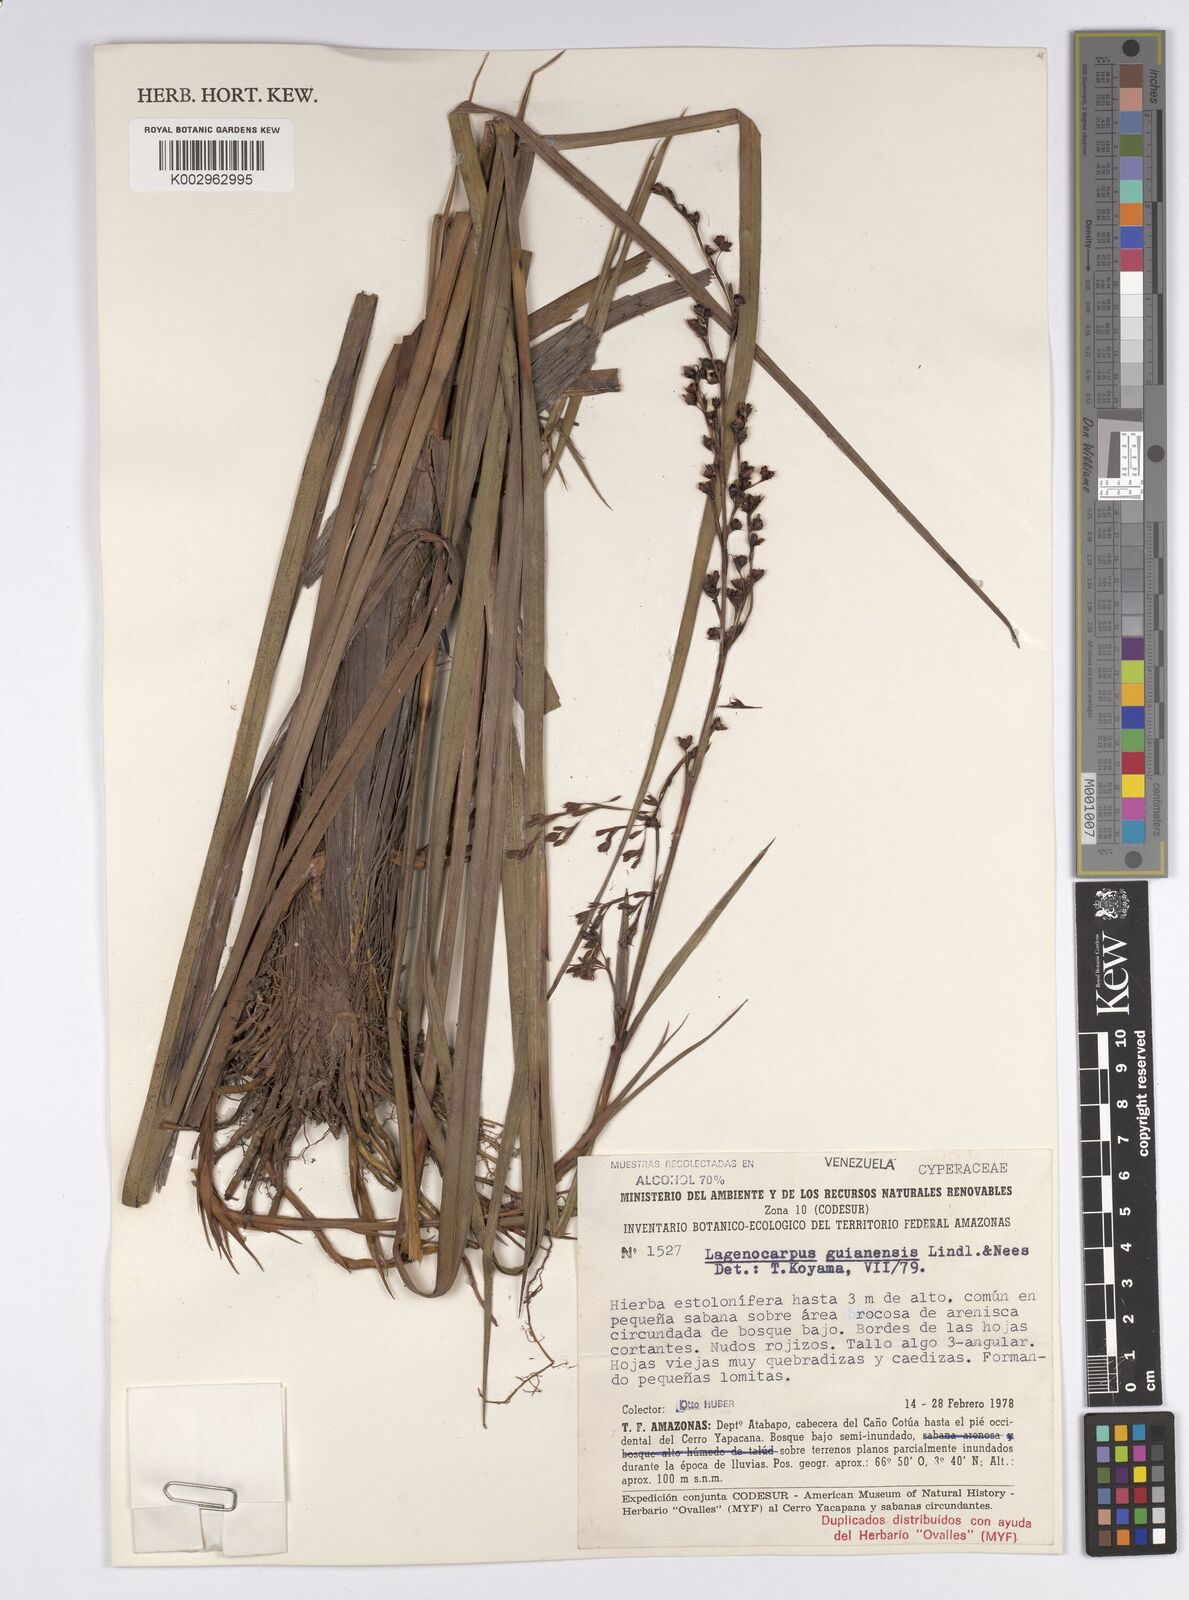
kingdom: Plantae
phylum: Tracheophyta
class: Liliopsida
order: Poales
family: Cyperaceae
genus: Lagenocarpus
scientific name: Lagenocarpus guianensis
